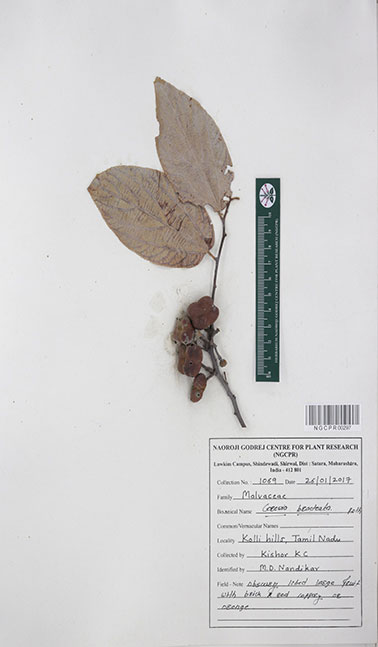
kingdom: Plantae
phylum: Tracheophyta
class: Magnoliopsida
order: Malvales
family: Malvaceae
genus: Grewia
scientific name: Grewia bracteata
